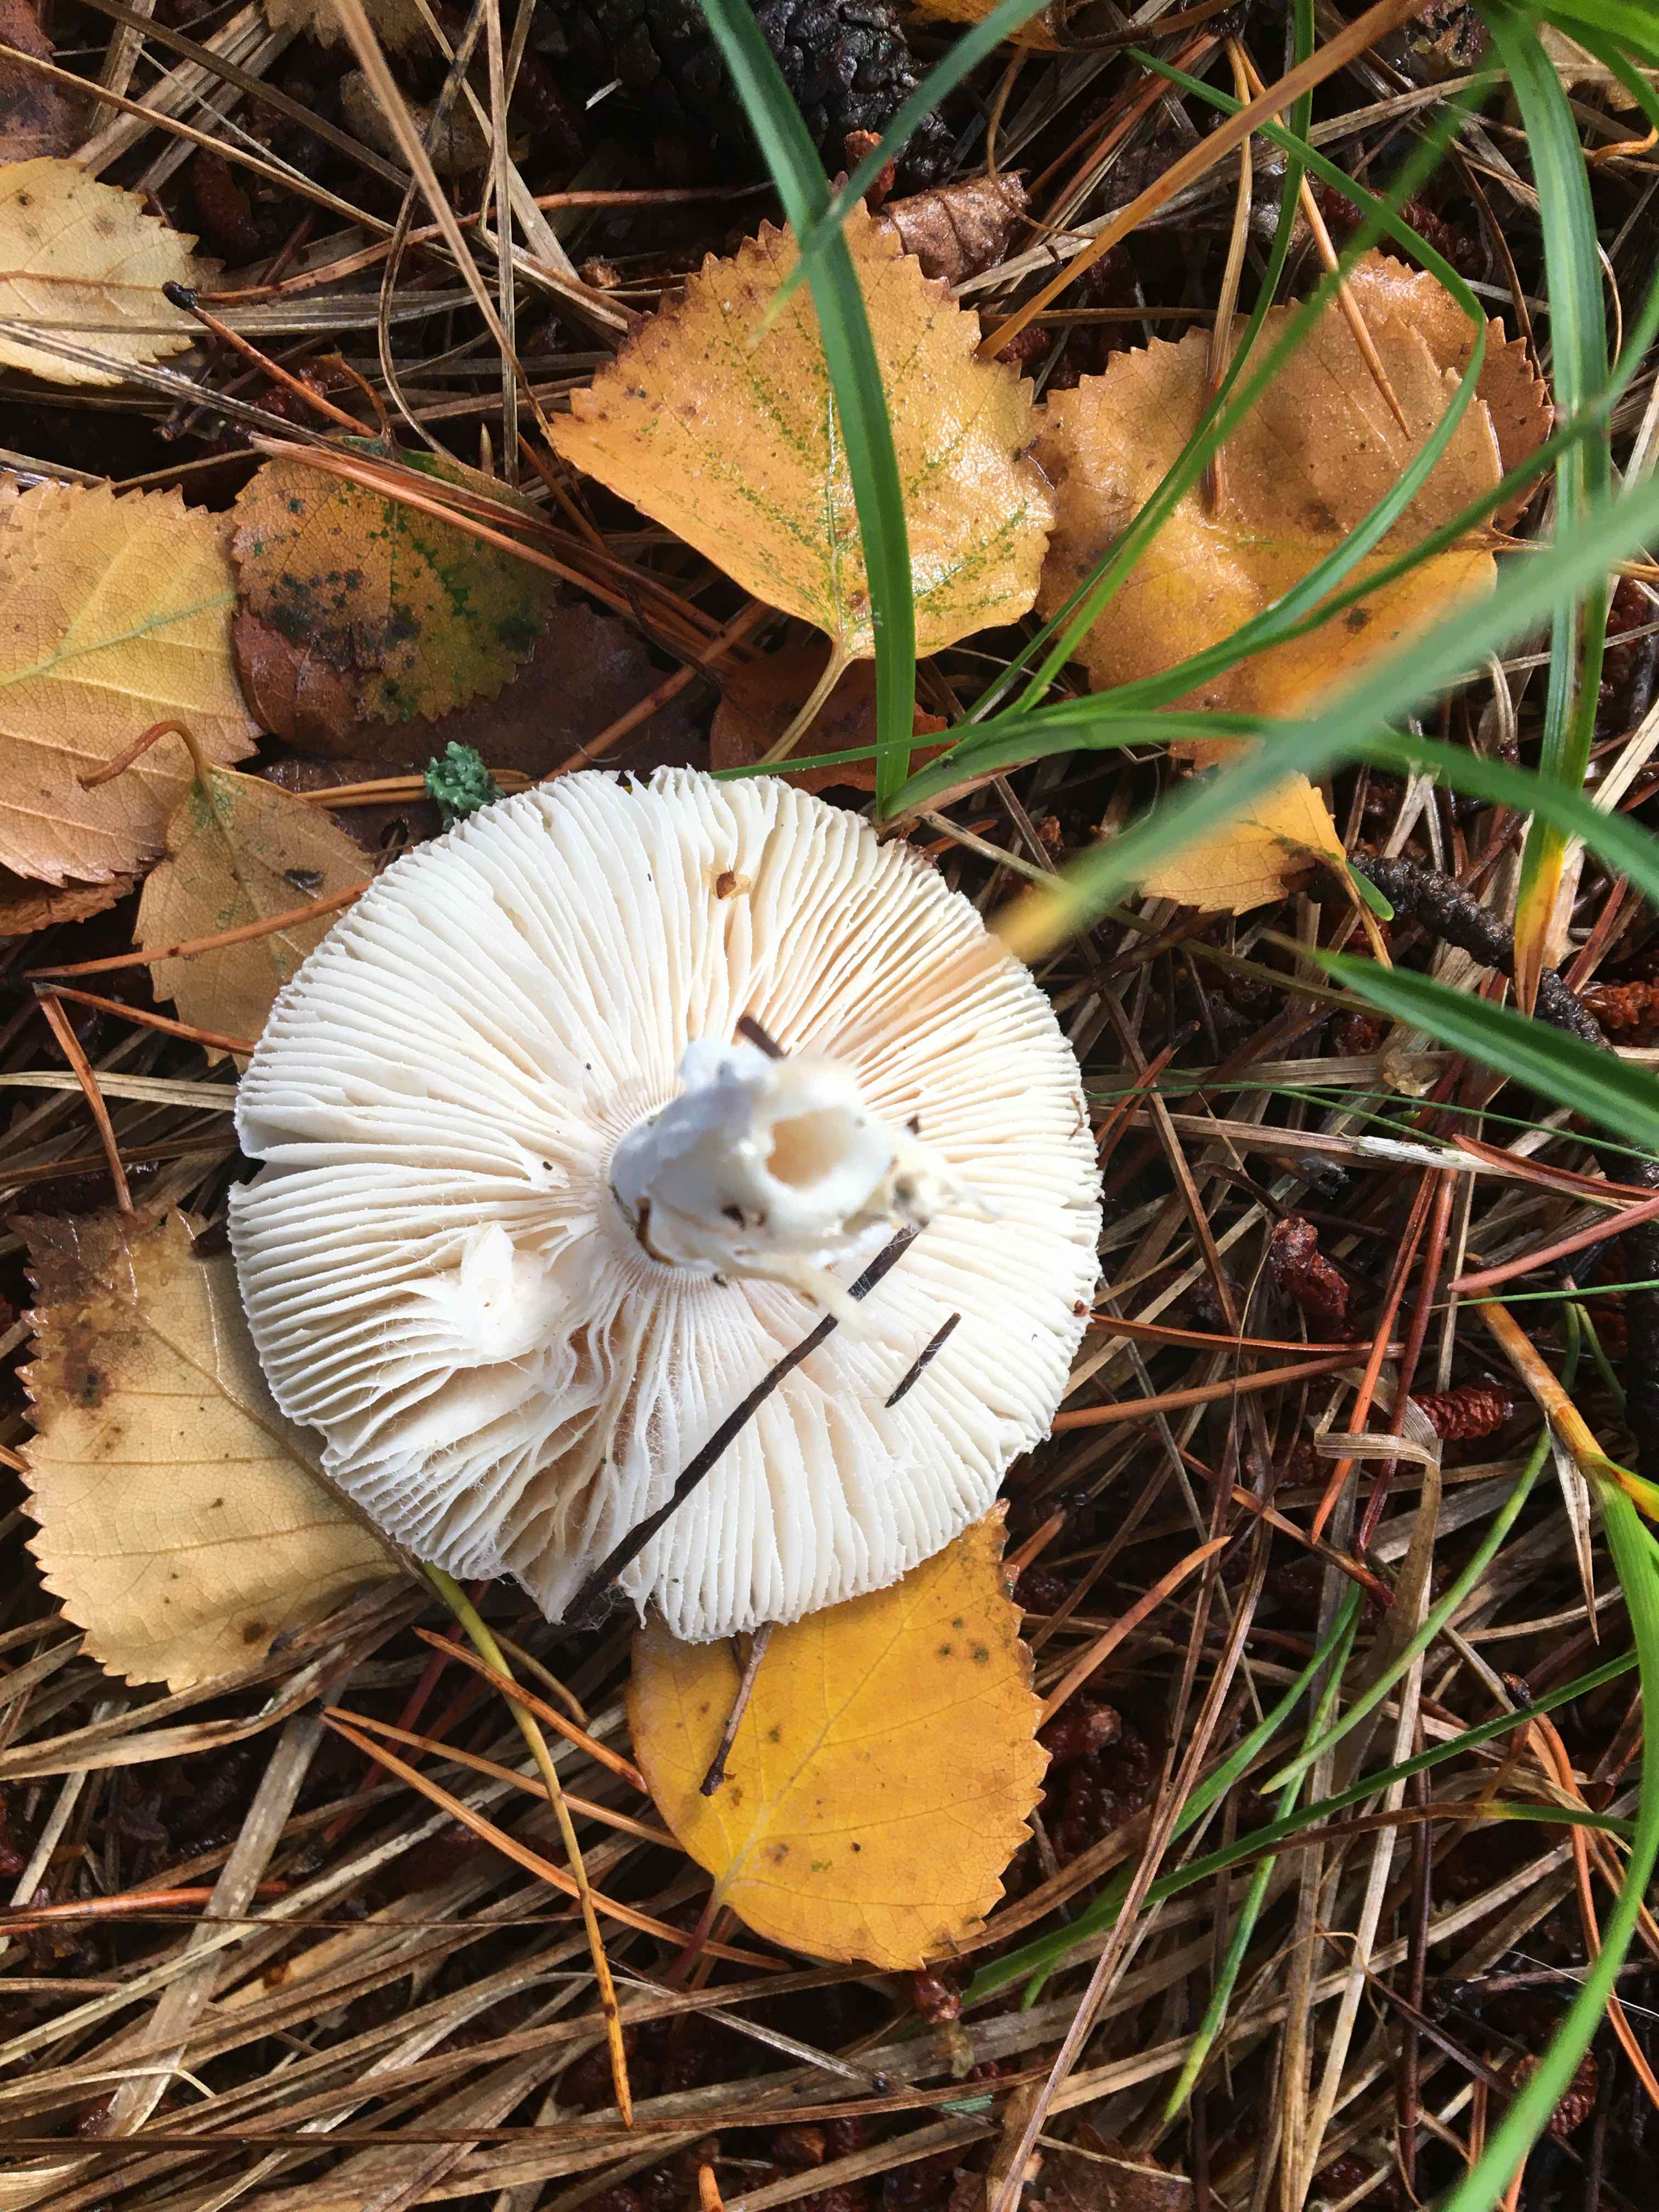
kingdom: Fungi
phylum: Basidiomycota
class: Agaricomycetes
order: Agaricales
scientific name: Agaricales
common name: champignonordenen
